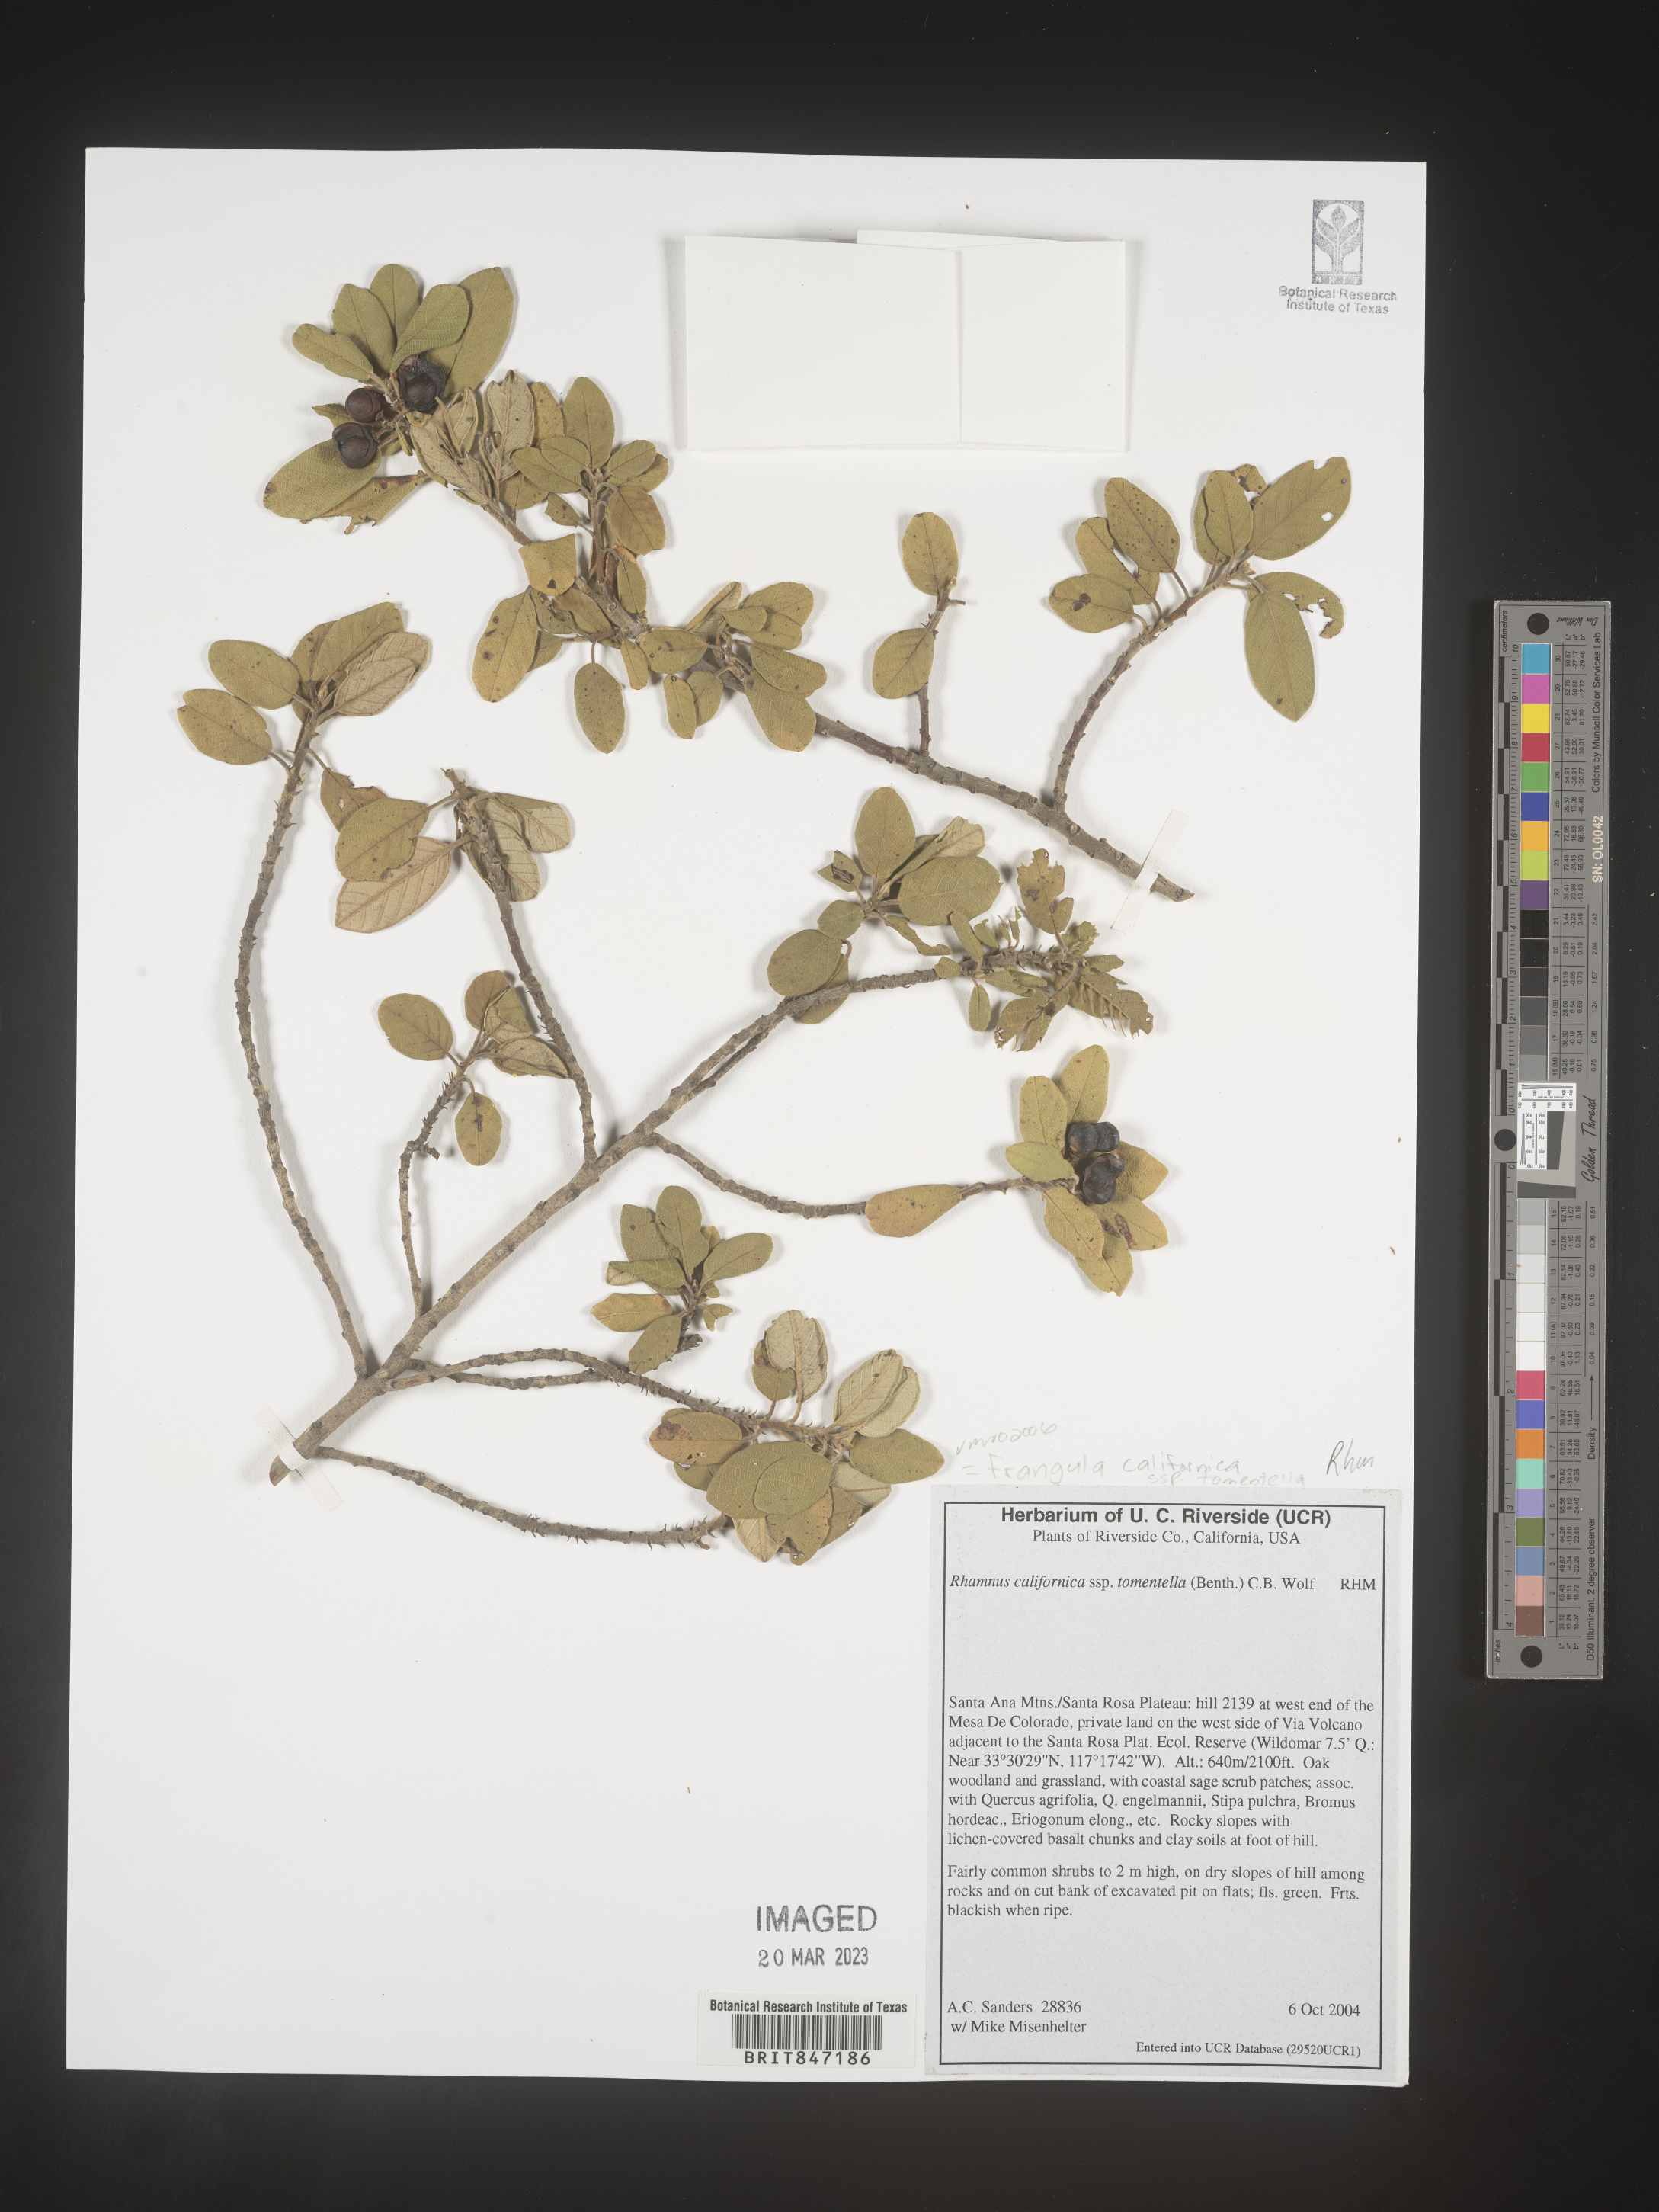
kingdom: Plantae
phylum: Tracheophyta
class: Magnoliopsida
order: Rosales
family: Rhamnaceae
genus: Frangula
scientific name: Frangula
